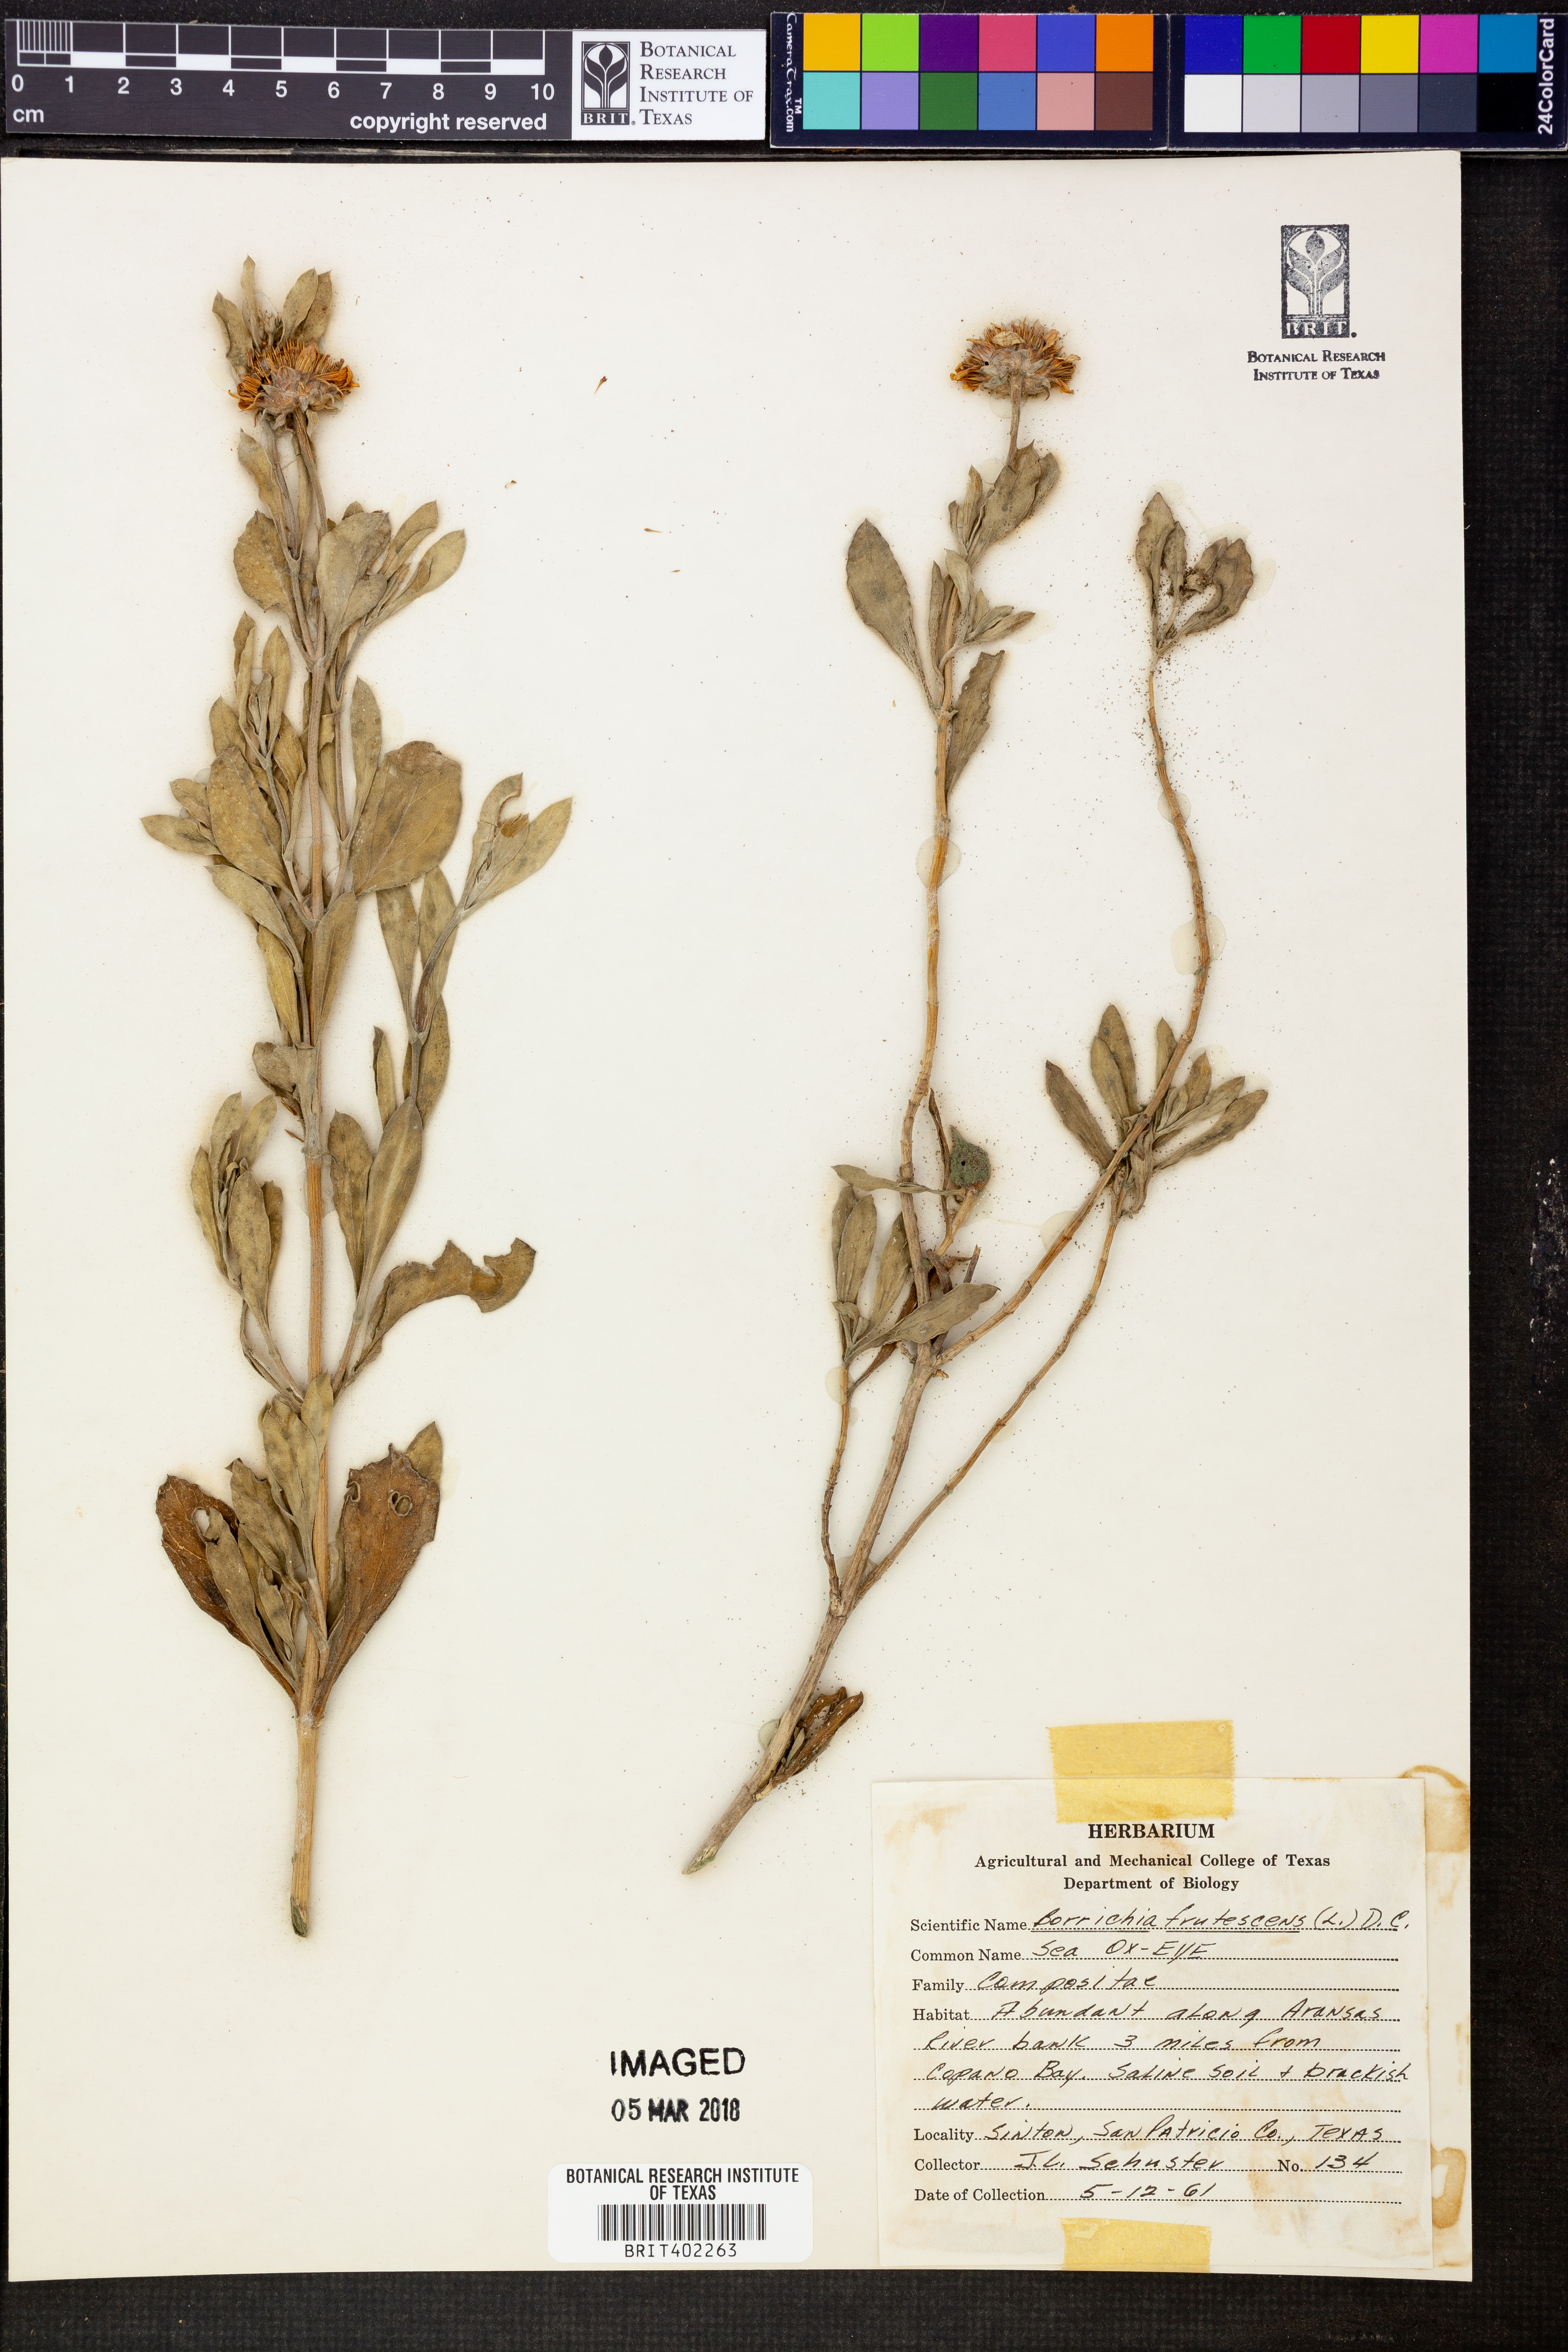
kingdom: Plantae
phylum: Tracheophyta
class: Magnoliopsida
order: Asterales
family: Asteraceae
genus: Borrichia
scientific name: Borrichia frutescens
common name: Sea oxeye
